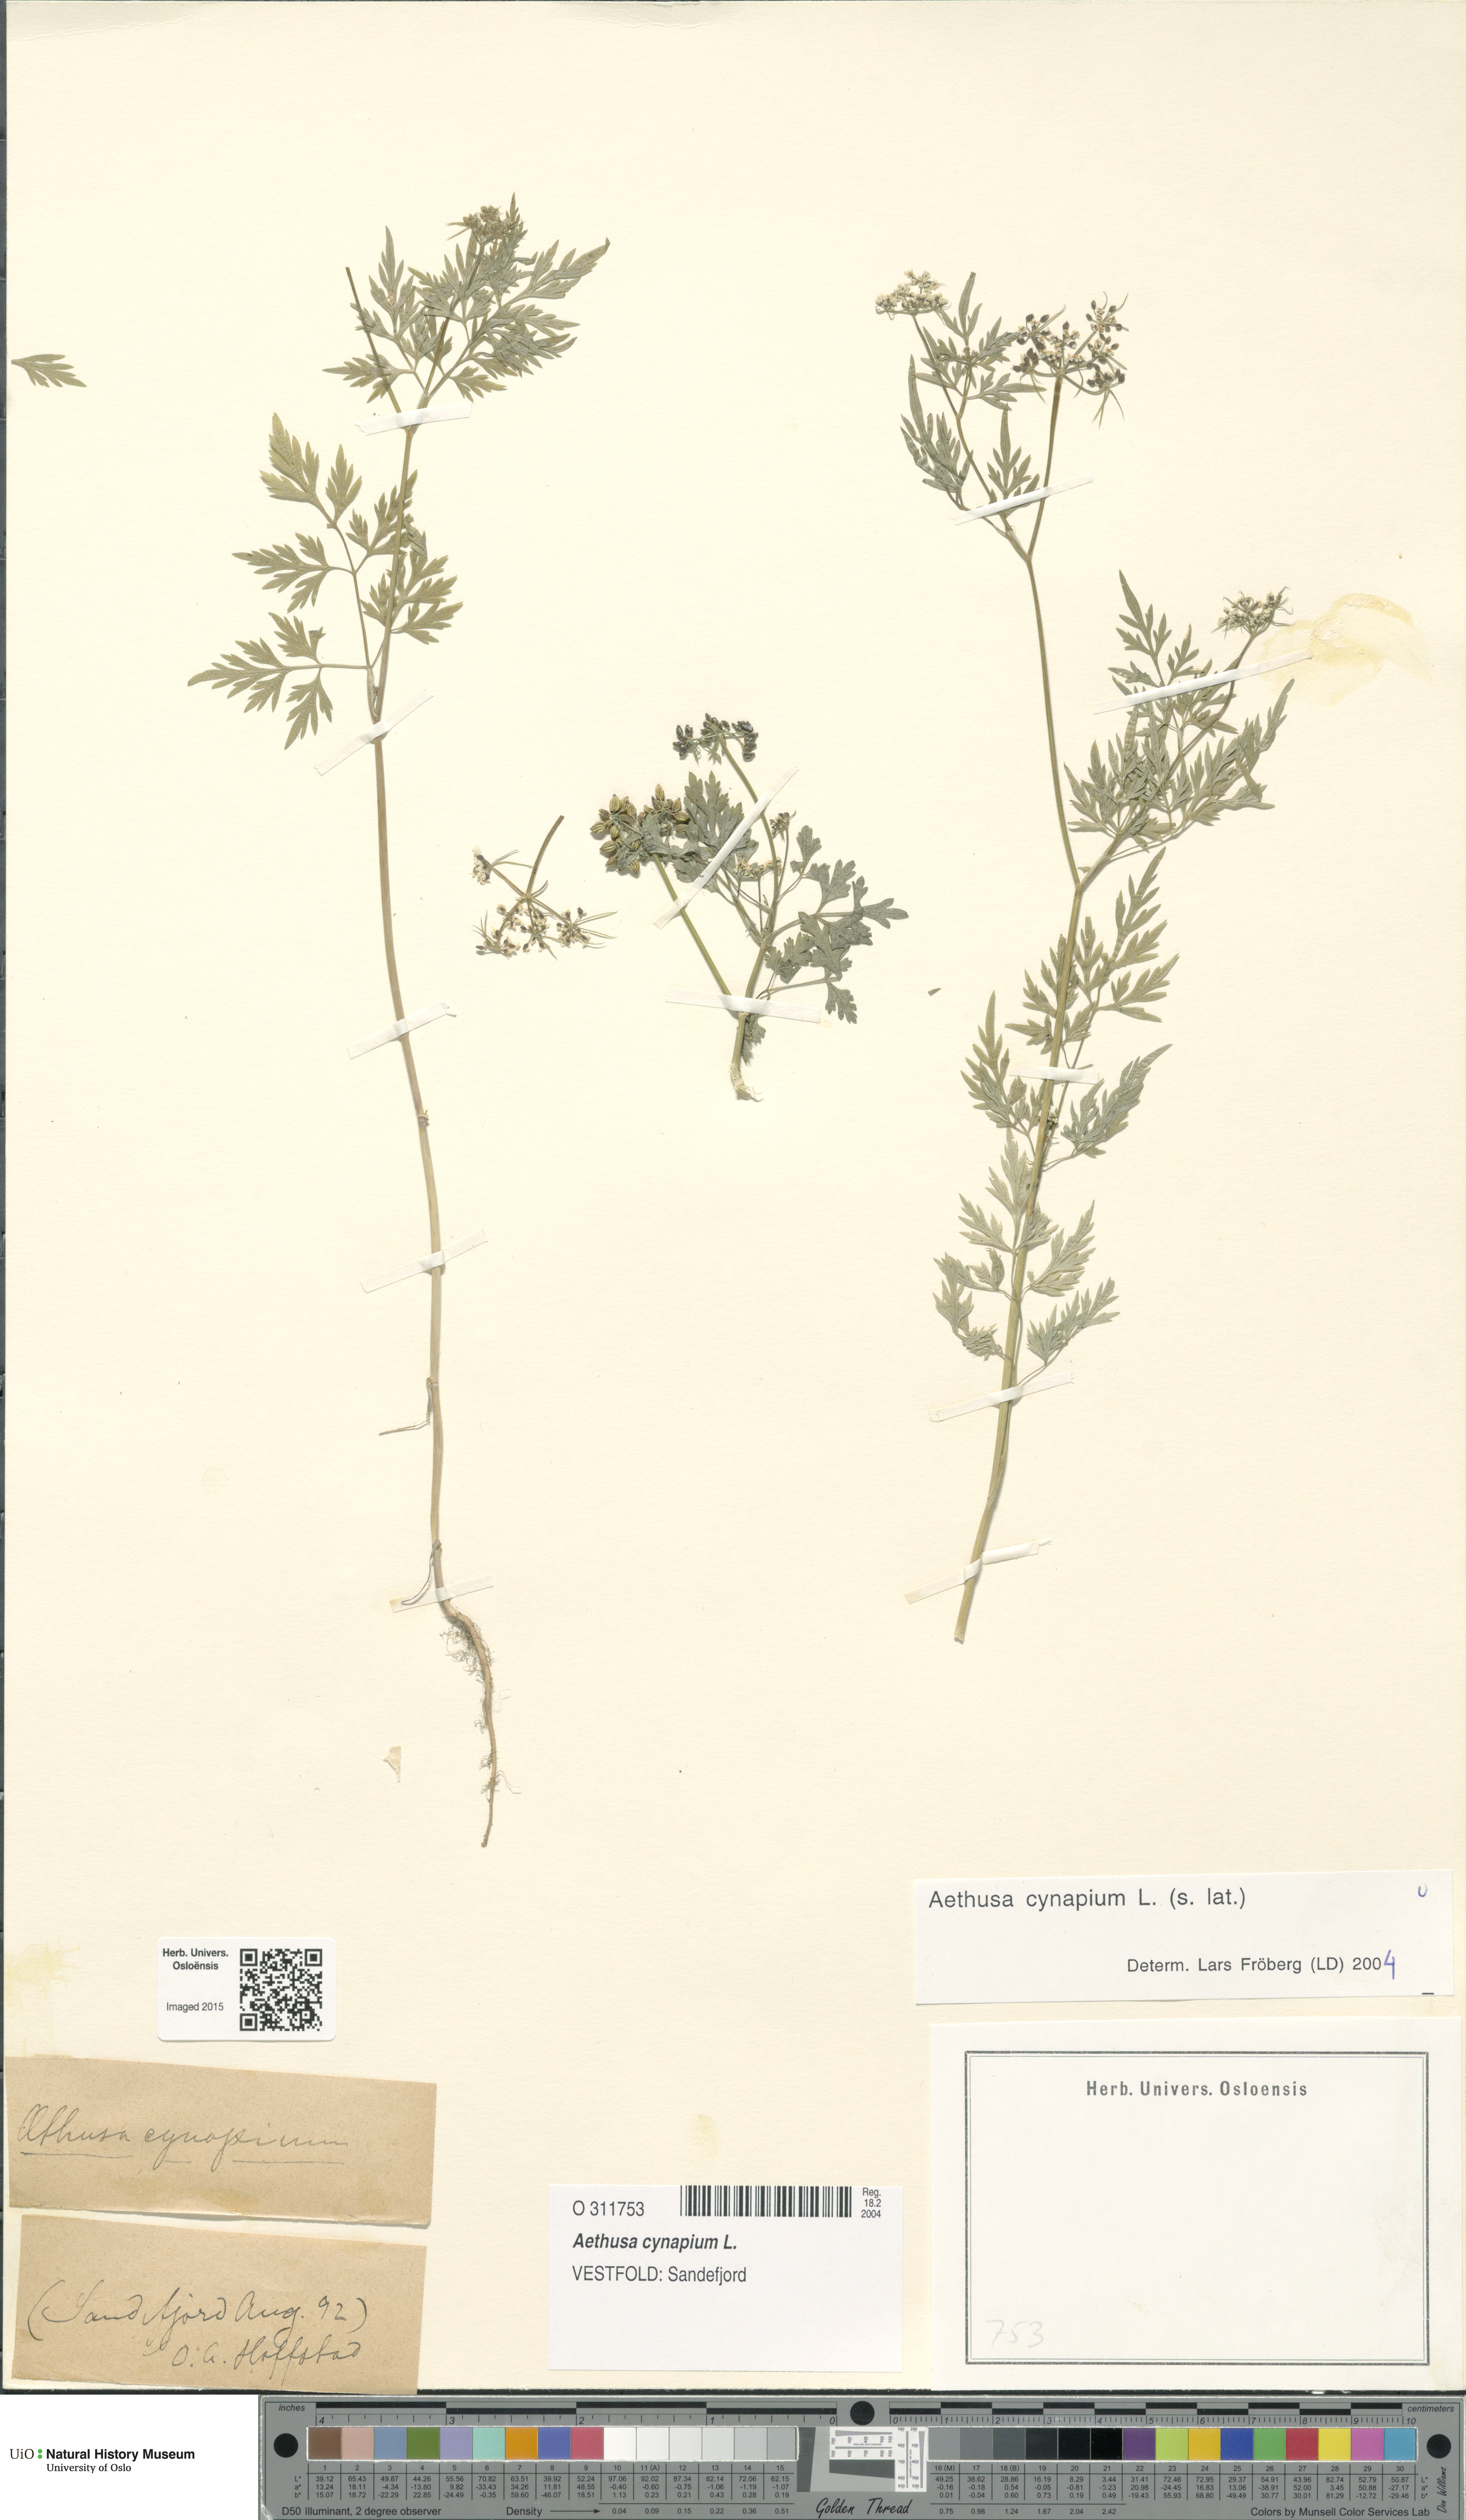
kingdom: Plantae
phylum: Tracheophyta
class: Magnoliopsida
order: Apiales
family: Apiaceae
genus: Aethusa
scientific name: Aethusa cynapium
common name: Fool's parsley
